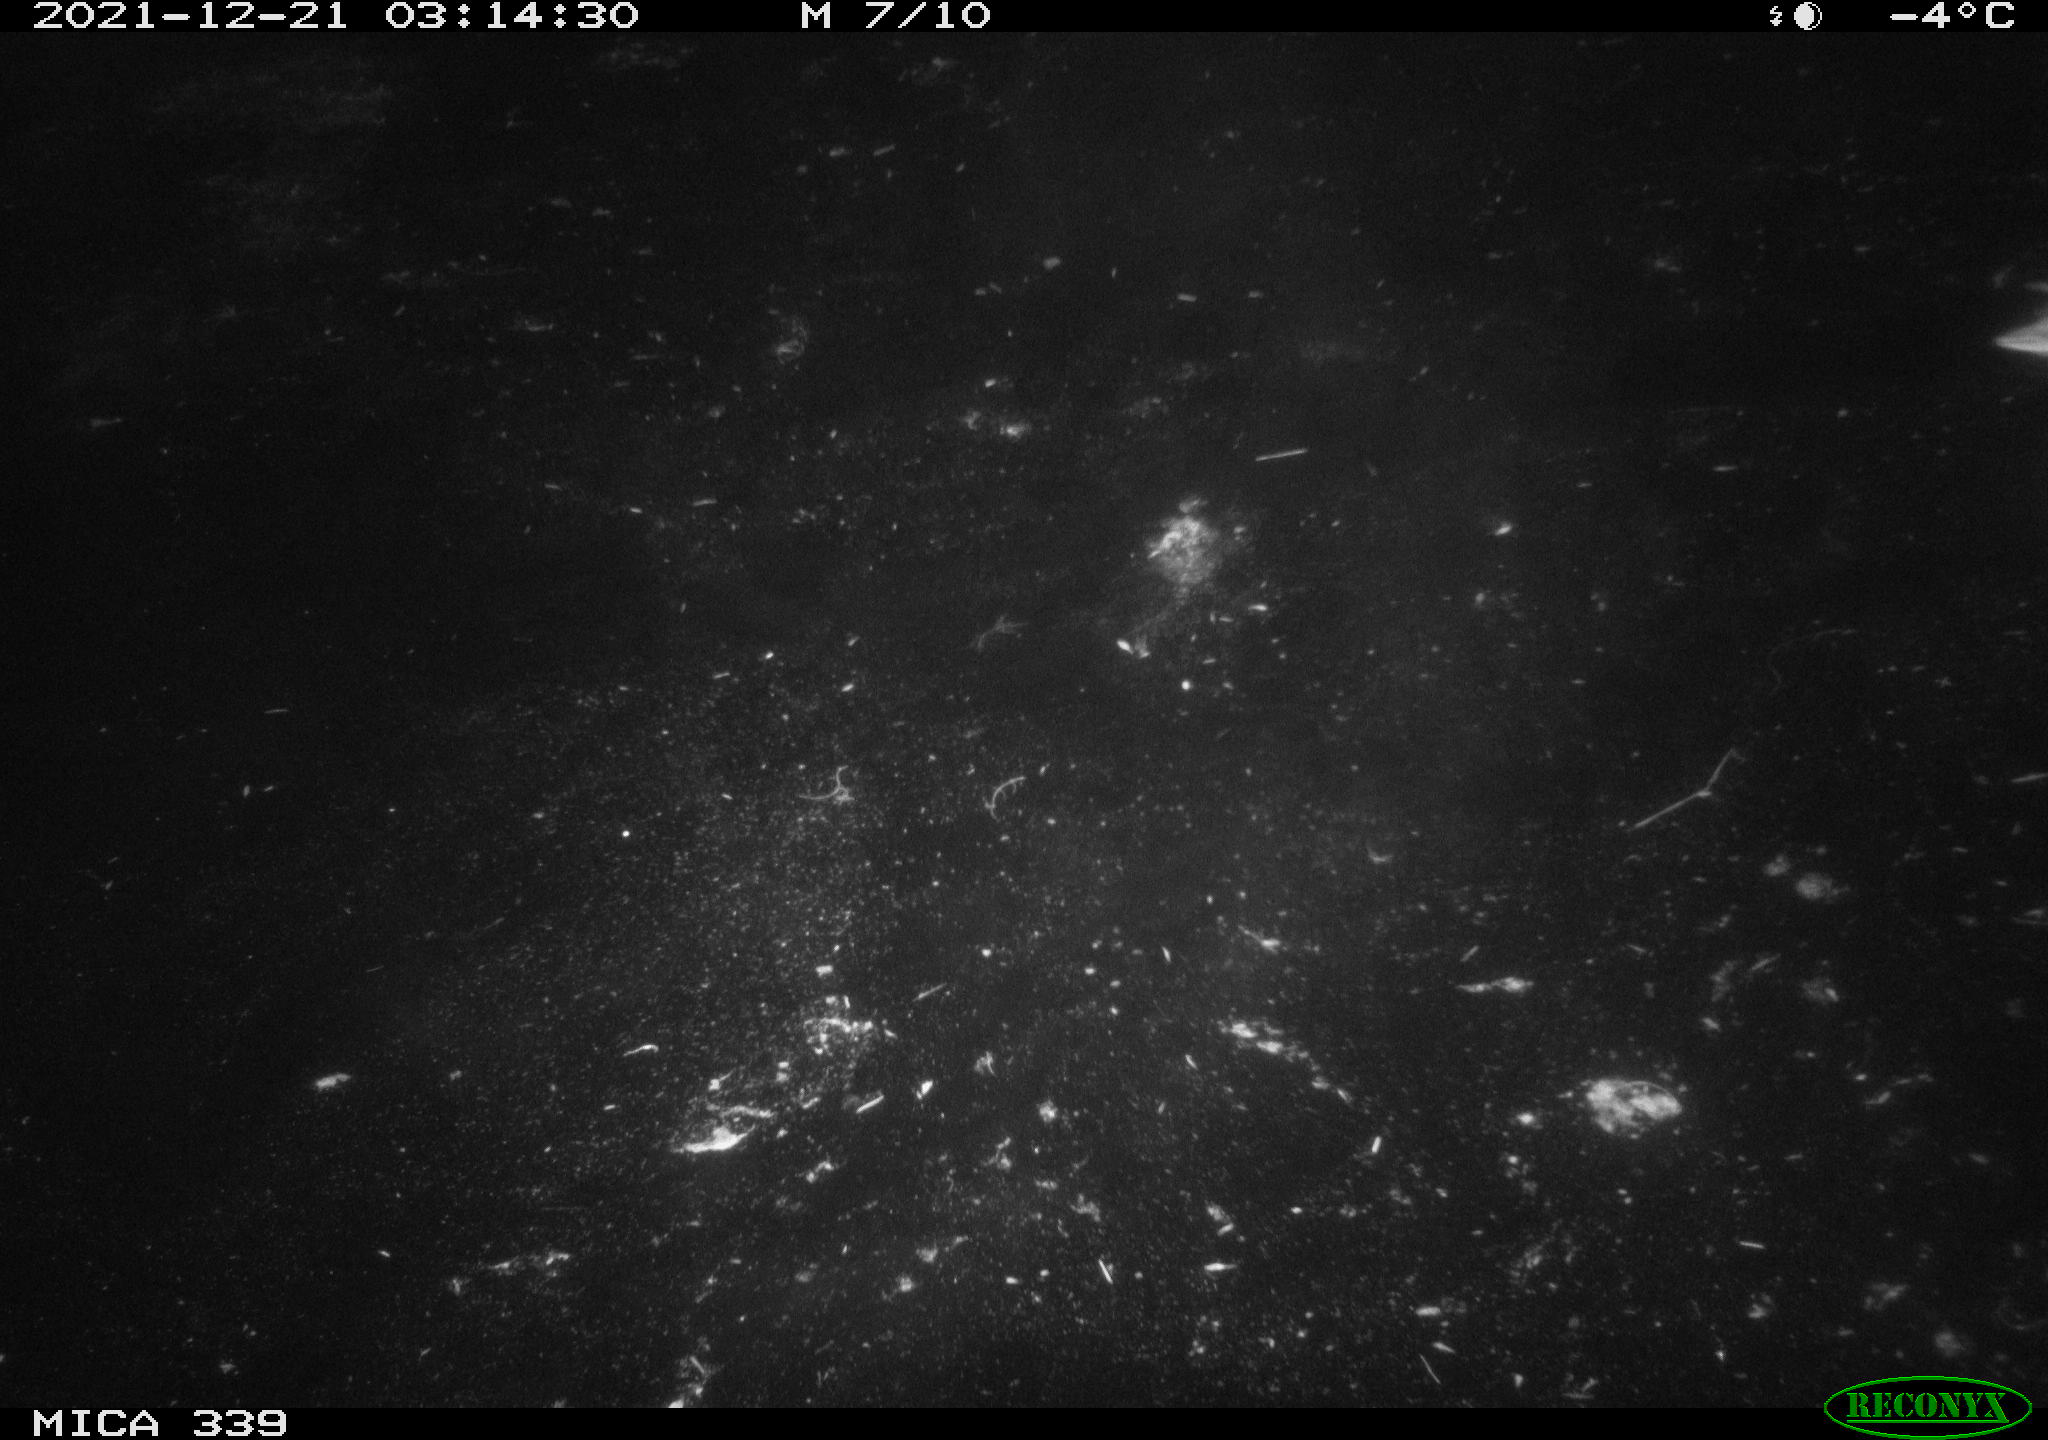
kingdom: Animalia
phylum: Chordata
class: Aves
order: Anseriformes
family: Anatidae
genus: Anas
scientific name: Anas platyrhynchos
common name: Mallard
